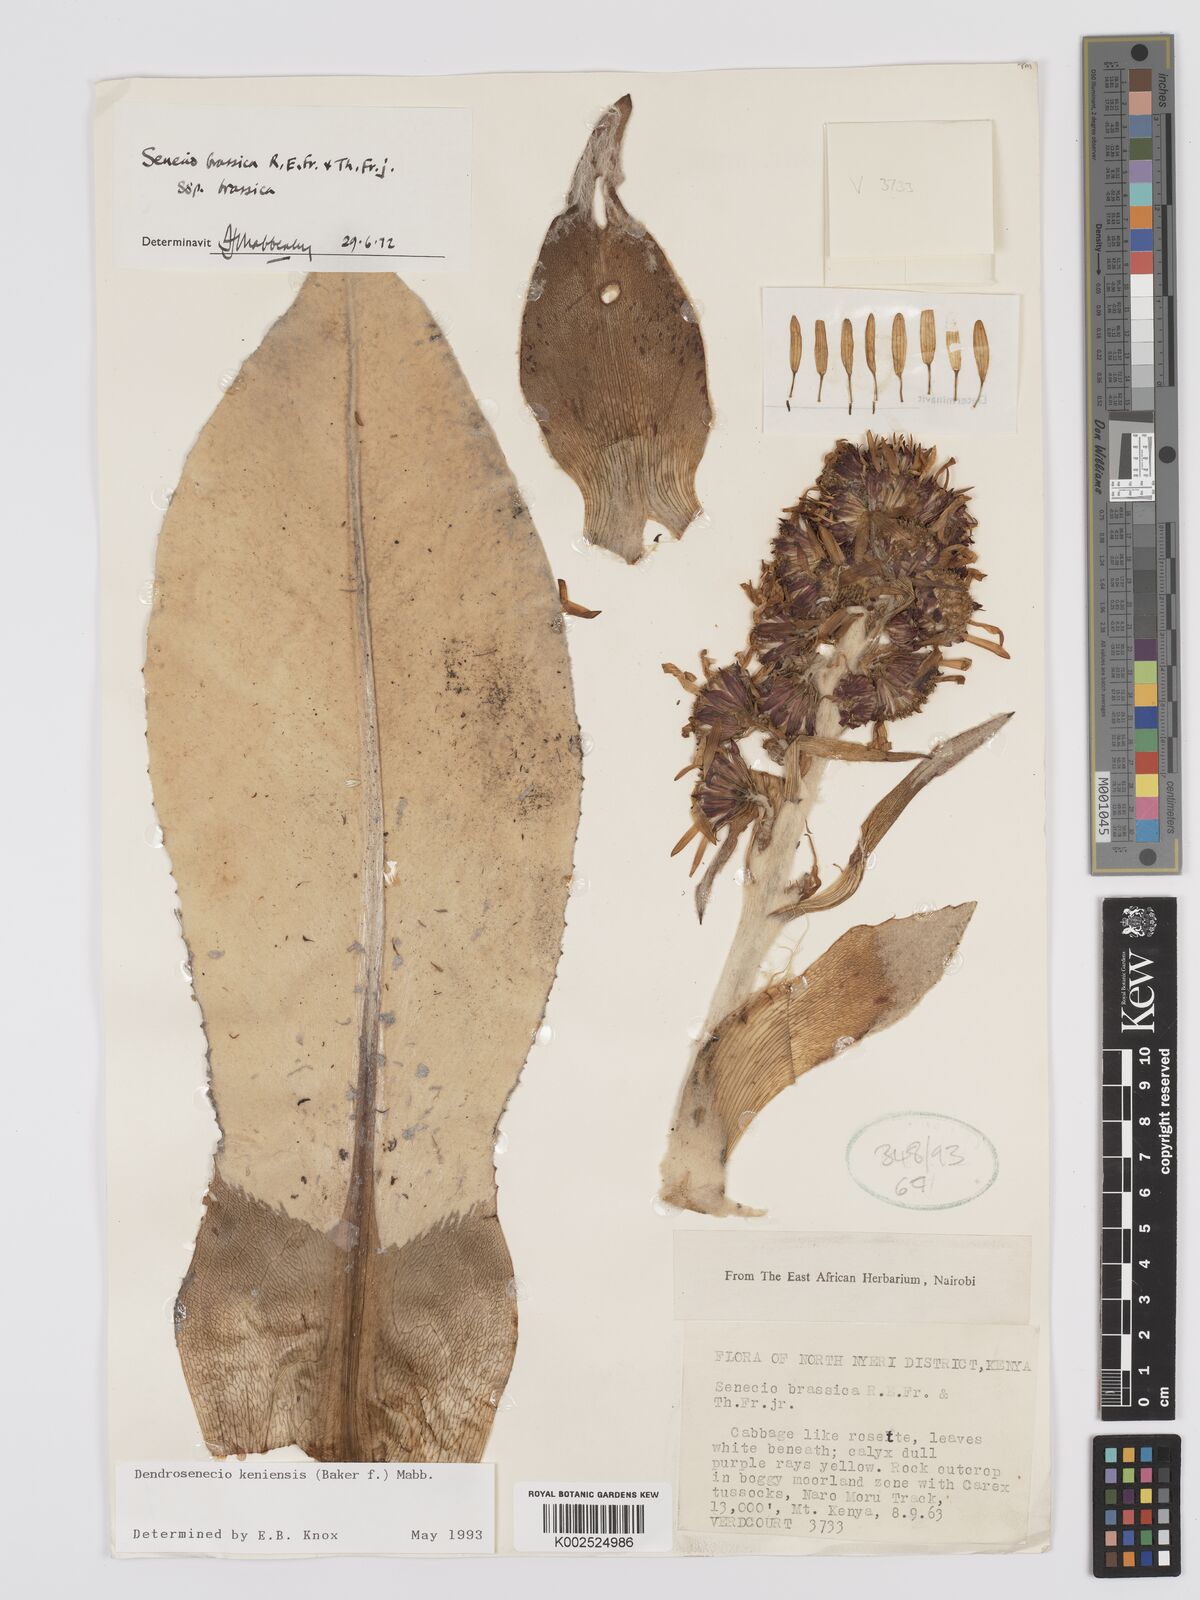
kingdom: Plantae
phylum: Tracheophyta
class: Magnoliopsida
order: Asterales
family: Asteraceae
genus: Dendrosenecio
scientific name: Dendrosenecio keniensis
